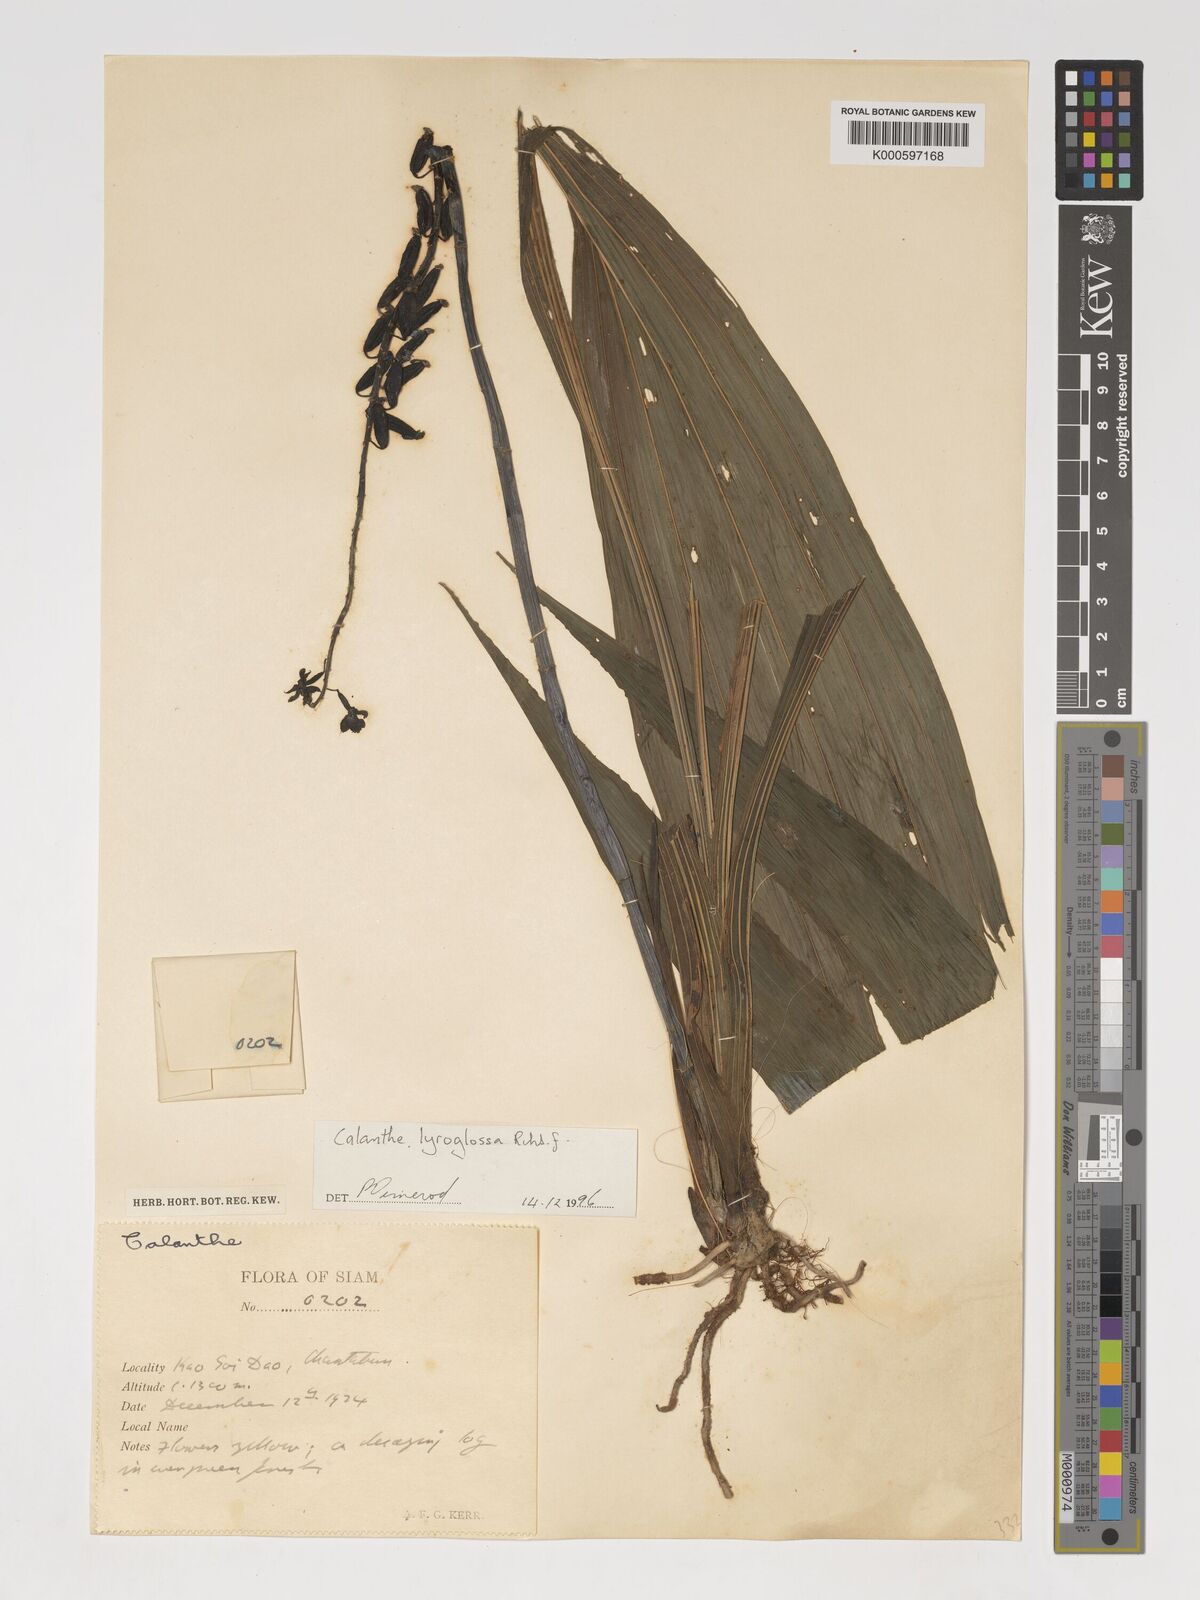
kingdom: Plantae
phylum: Tracheophyta
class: Liliopsida
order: Asparagales
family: Orchidaceae
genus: Calanthe
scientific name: Calanthe lyroglossa
